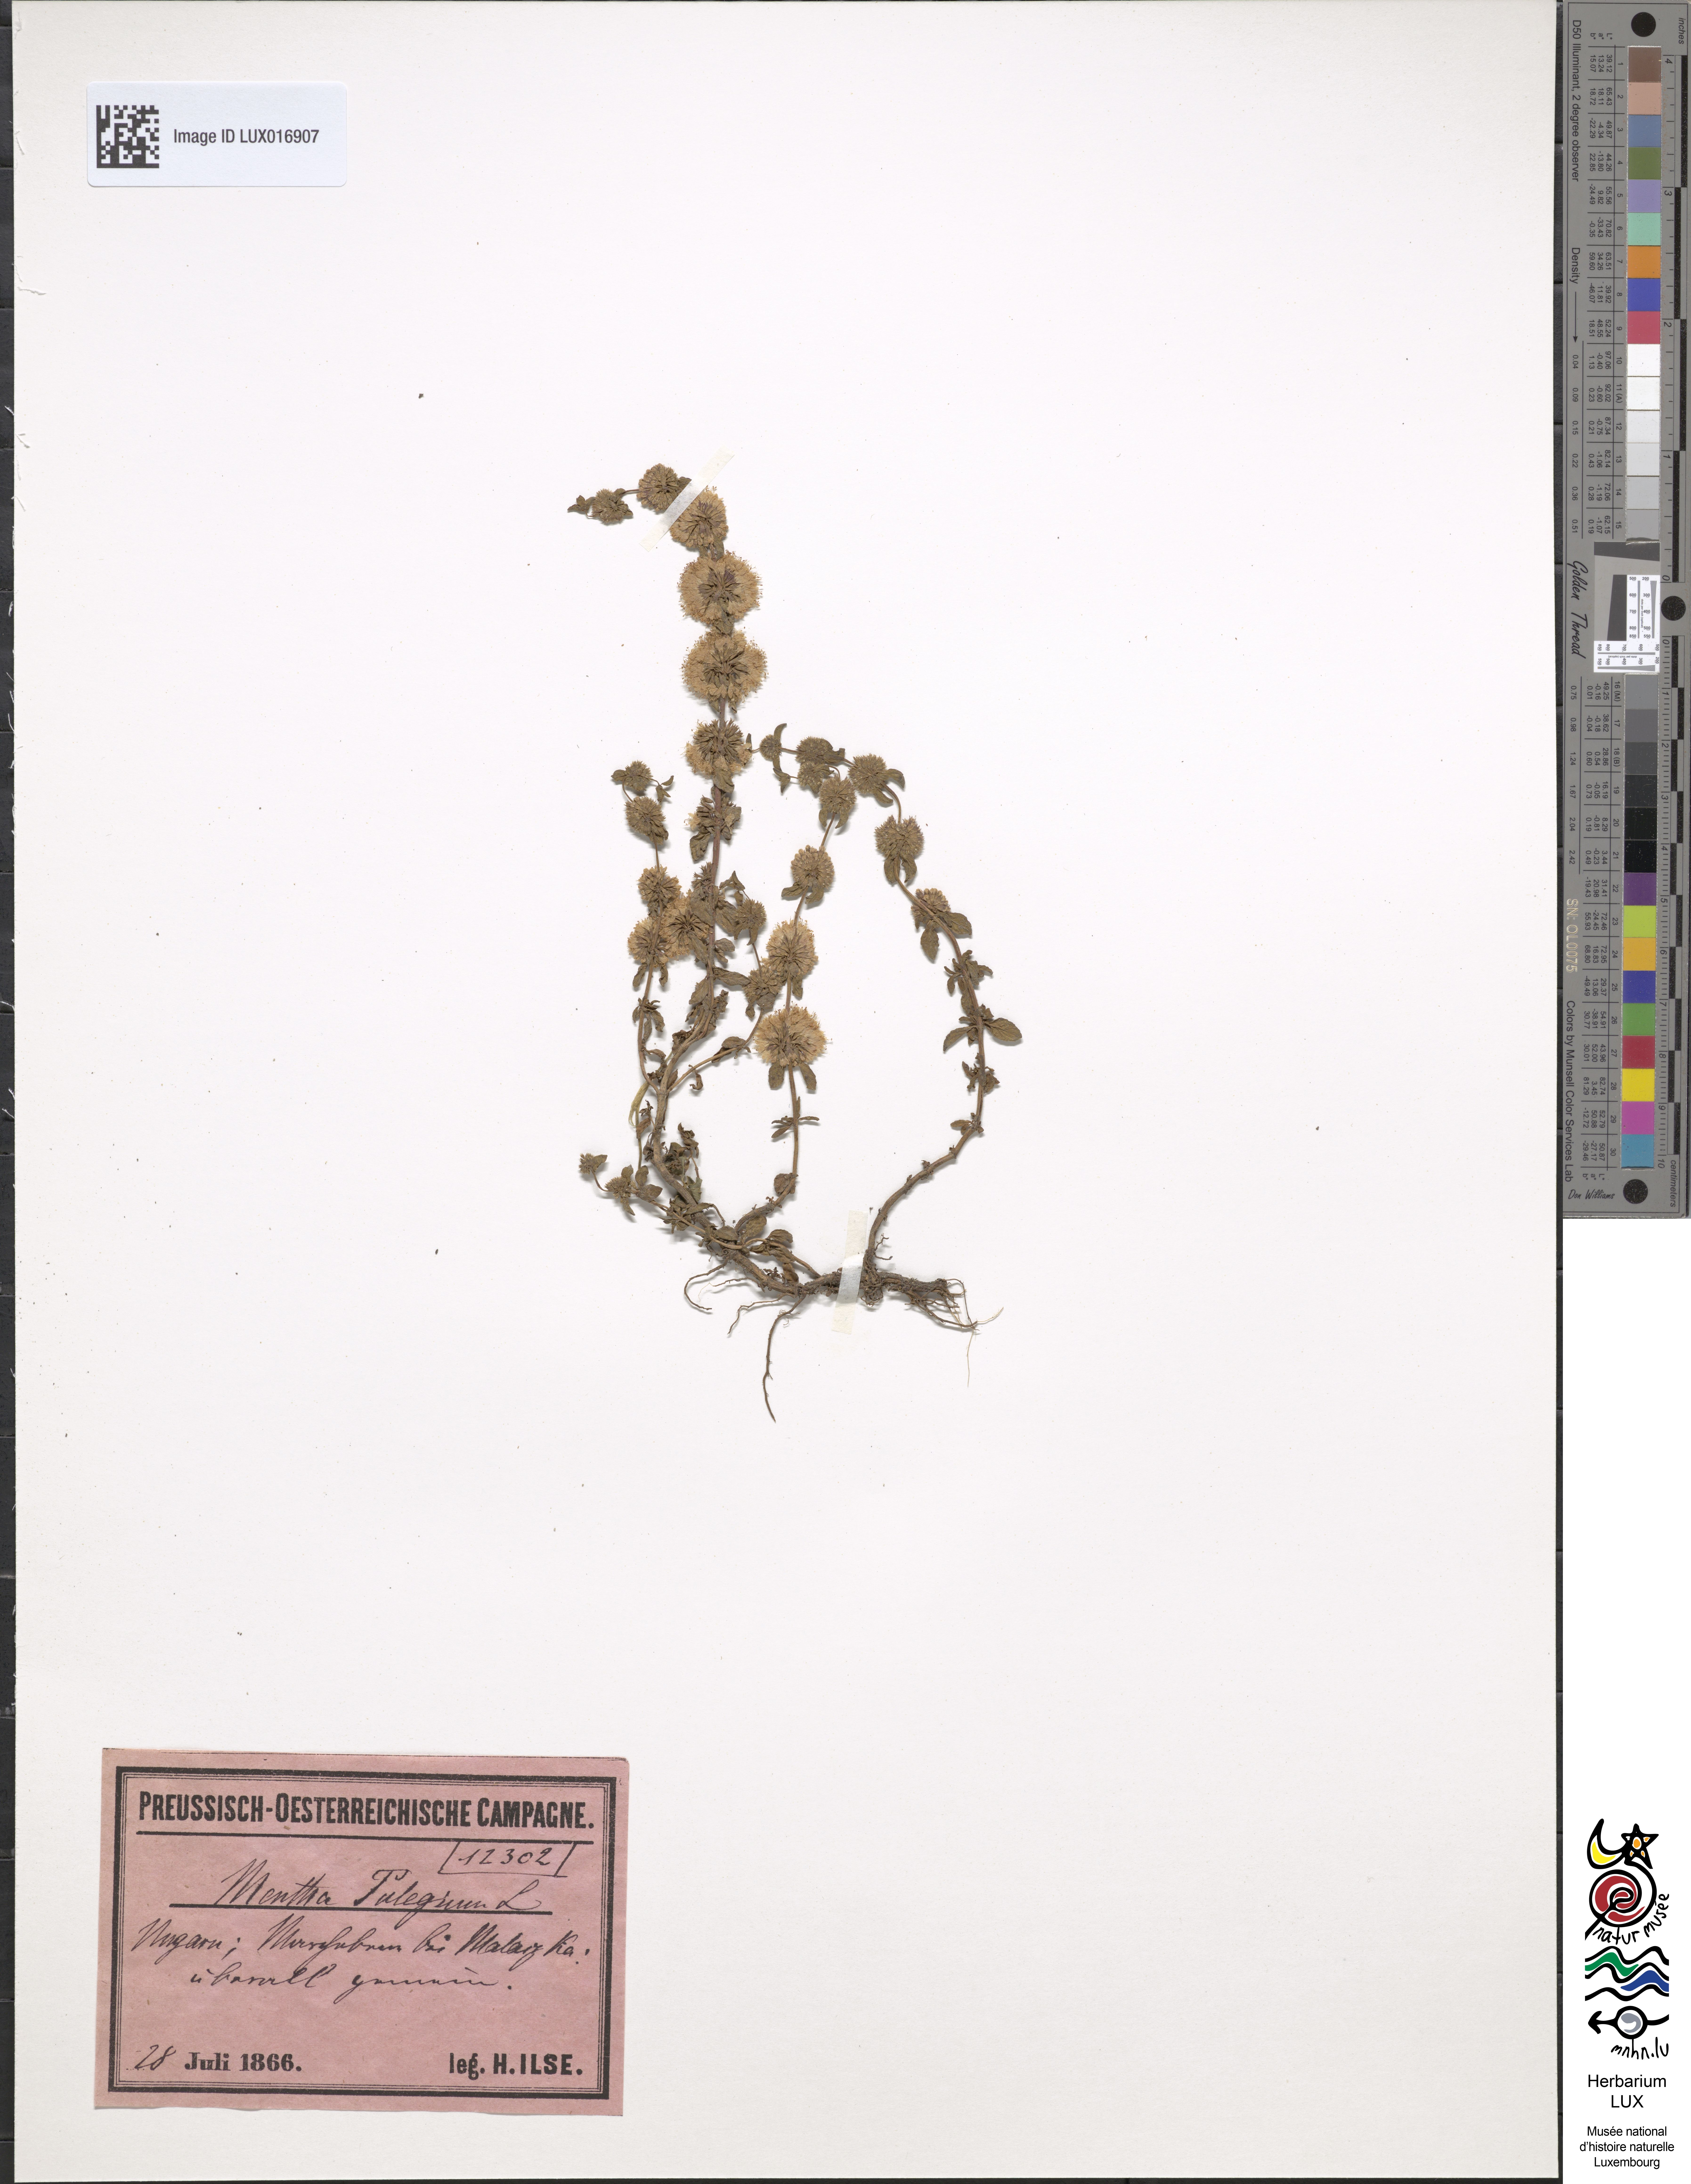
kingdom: Plantae
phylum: Tracheophyta
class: Magnoliopsida
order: Lamiales
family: Lamiaceae
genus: Mentha
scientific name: Mentha pulegium
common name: Pennyroyal
